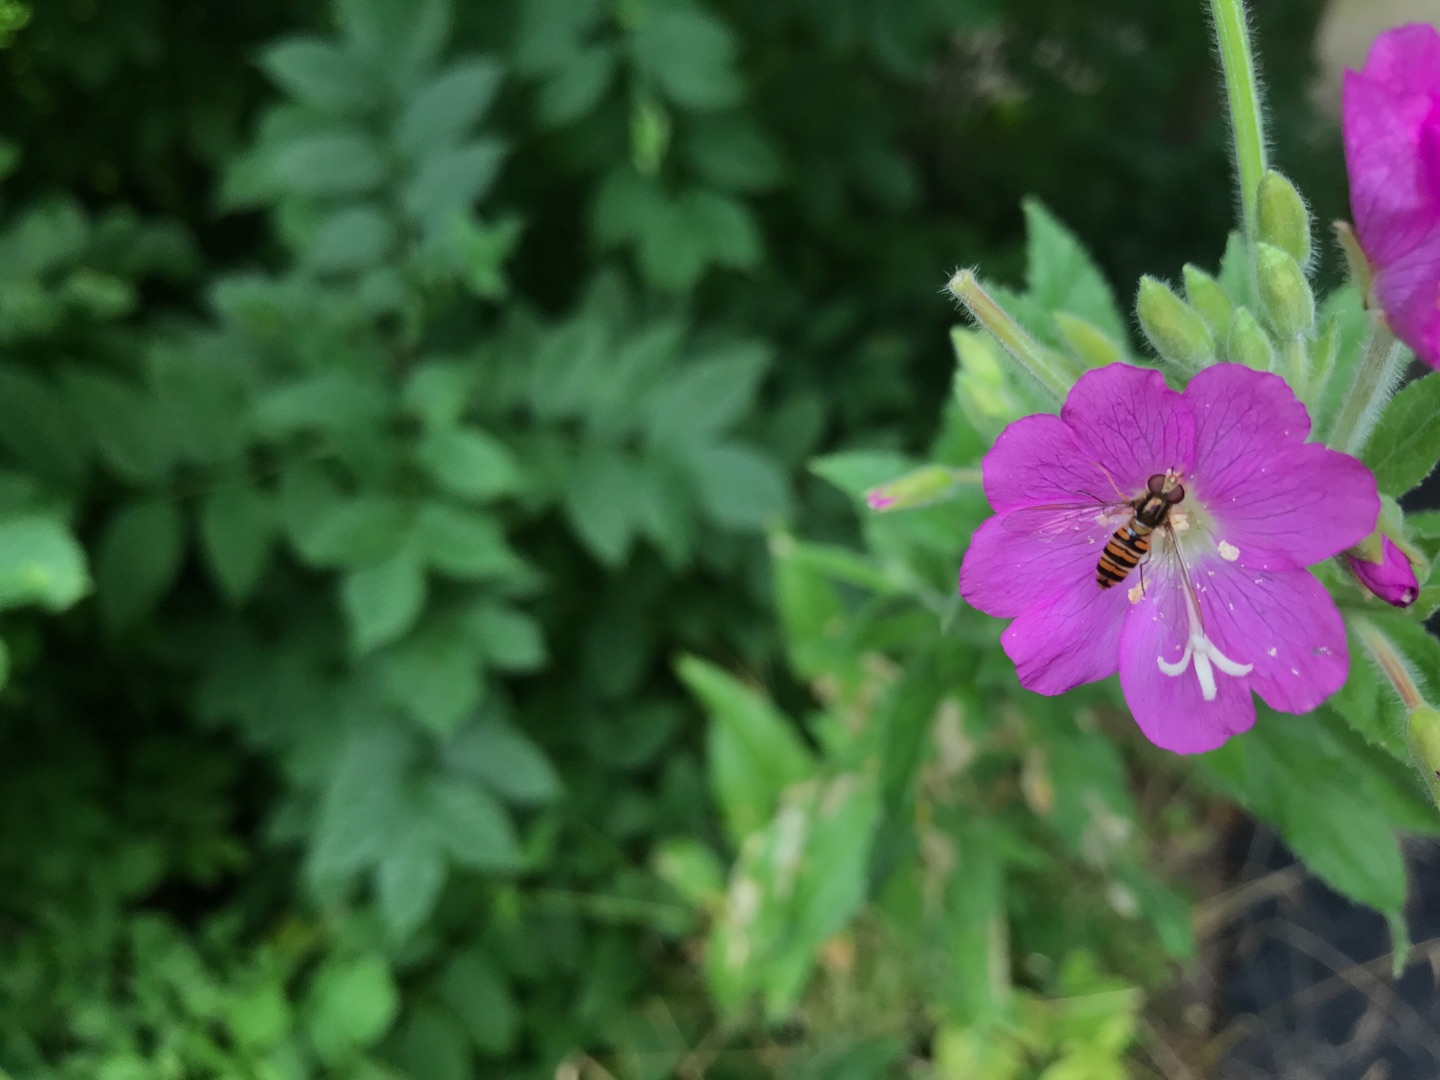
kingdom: Animalia
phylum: Arthropoda
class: Insecta
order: Diptera
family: Syrphidae
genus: Episyrphus
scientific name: Episyrphus balteatus
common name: Dobbeltbåndet svirreflue
